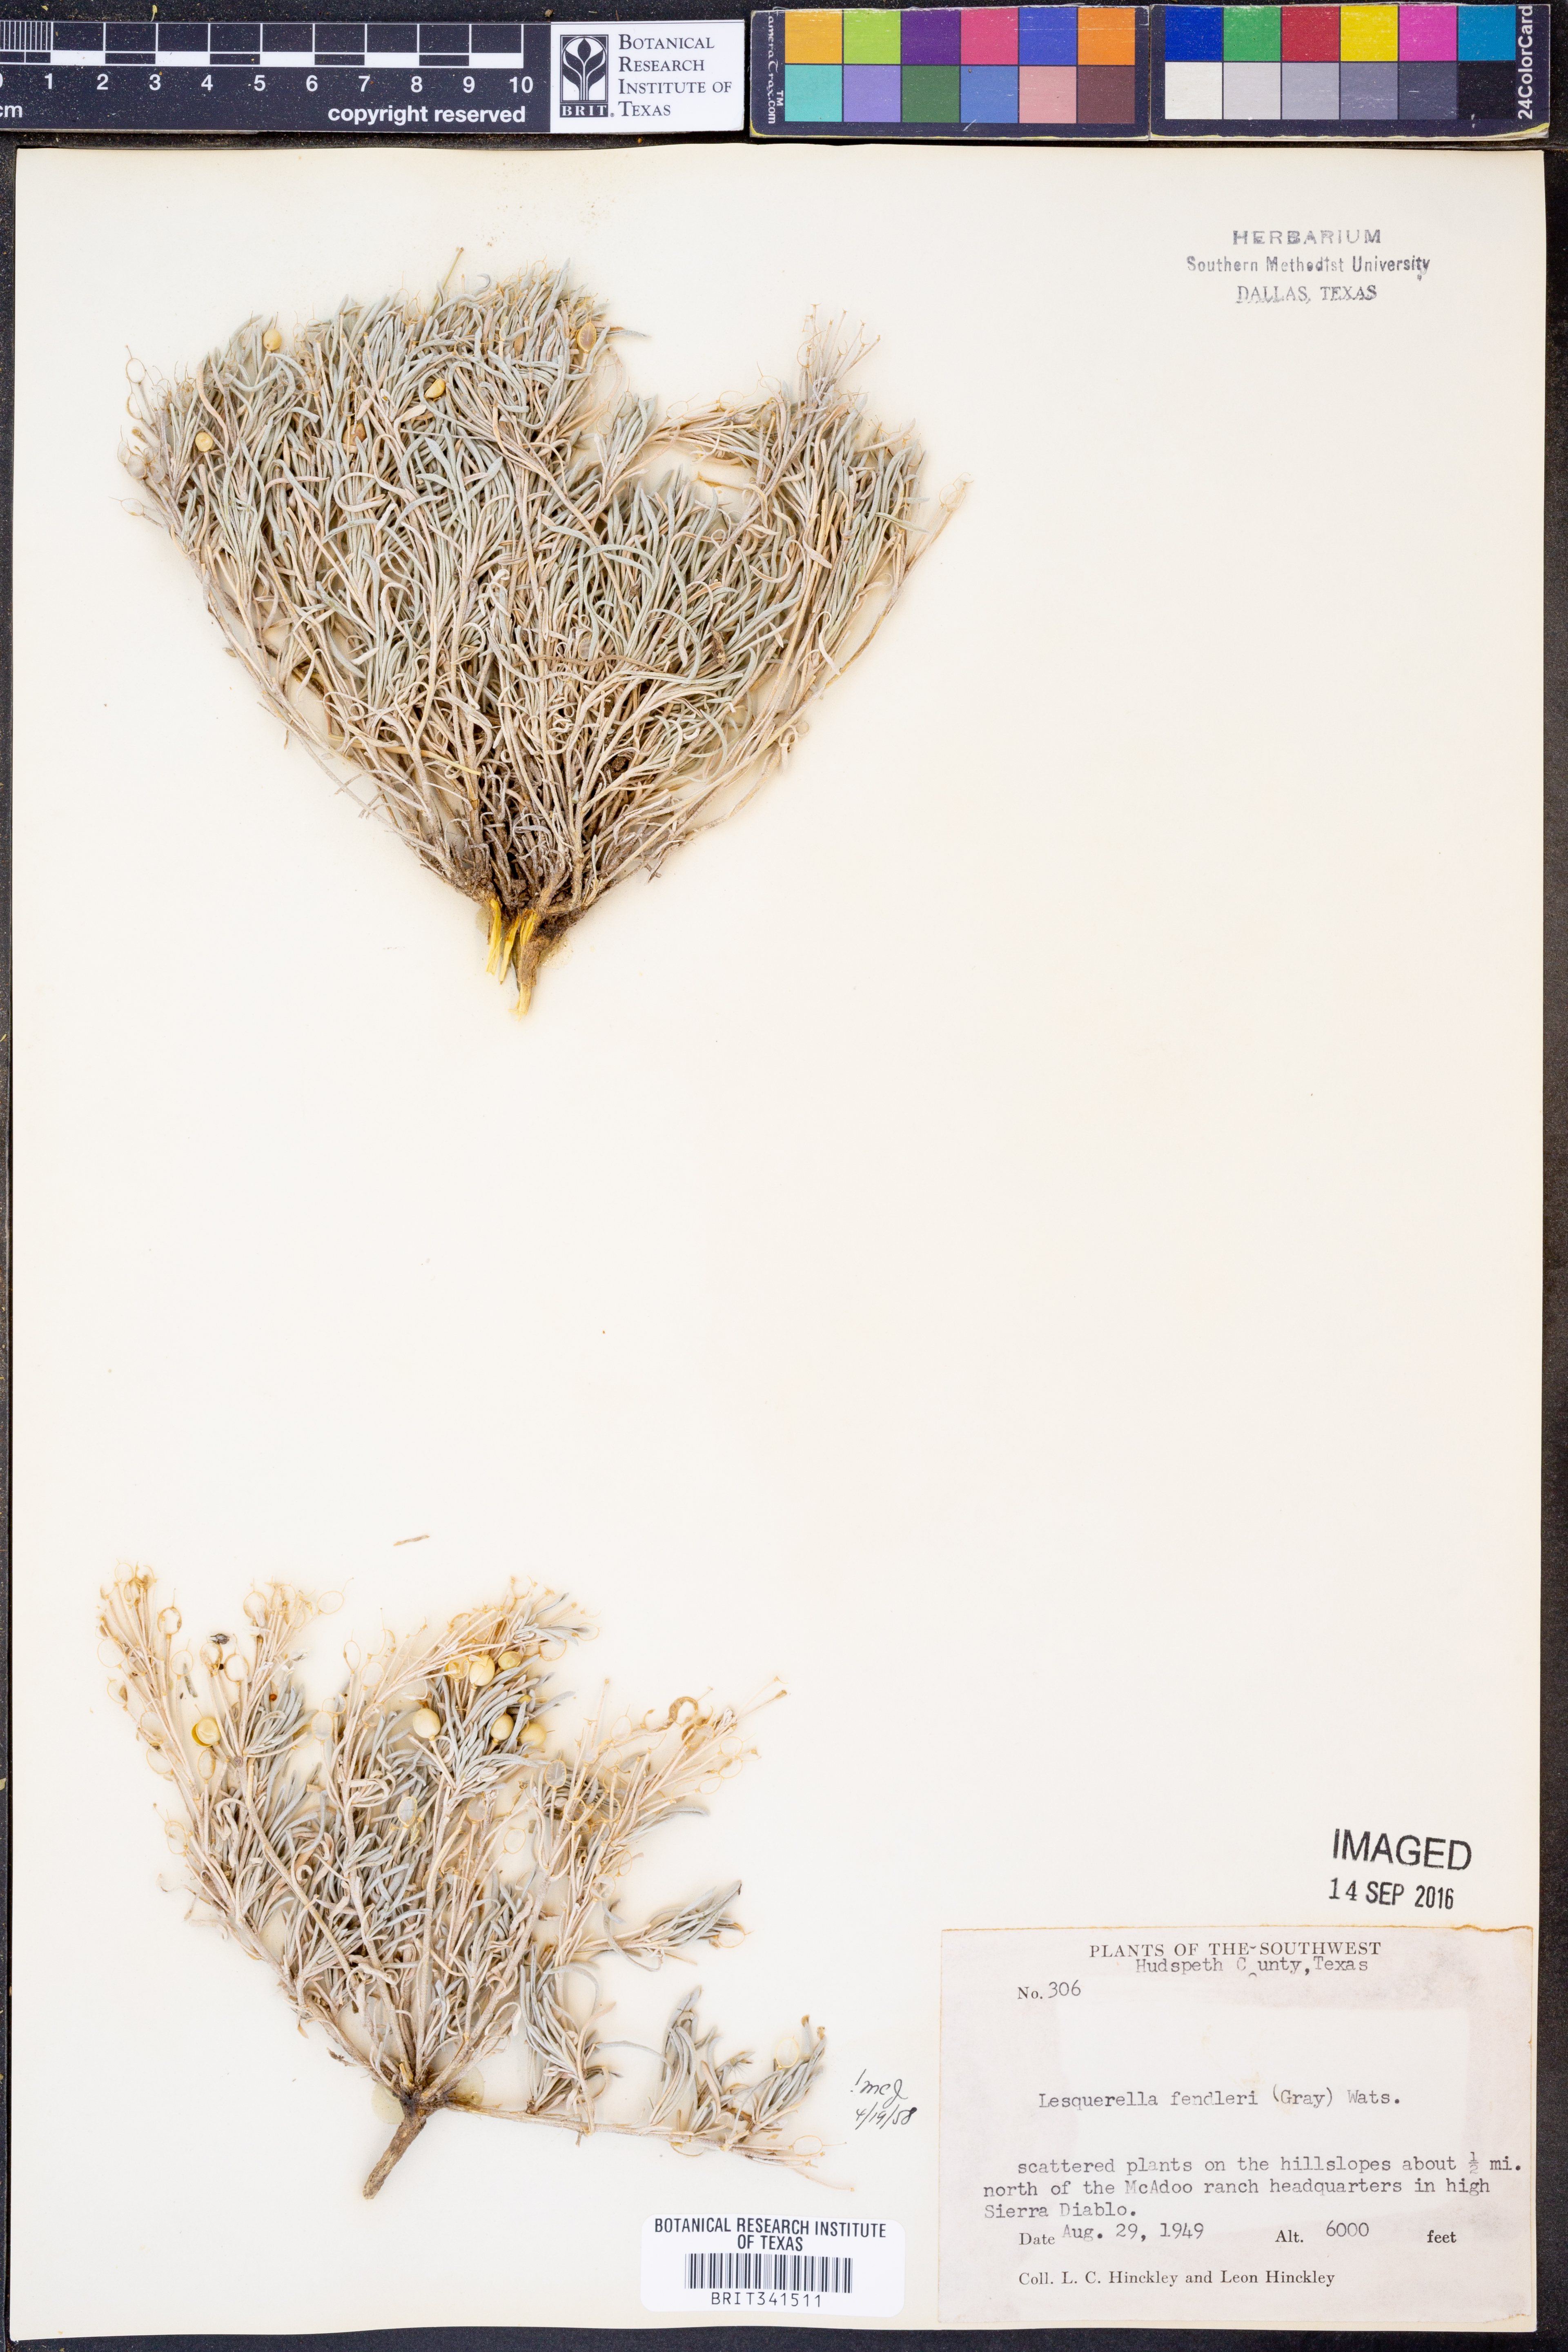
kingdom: Plantae
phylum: Tracheophyta
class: Magnoliopsida
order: Brassicales
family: Brassicaceae
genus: Physaria
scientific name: Physaria fendleri
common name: Fendler's bladderpod
